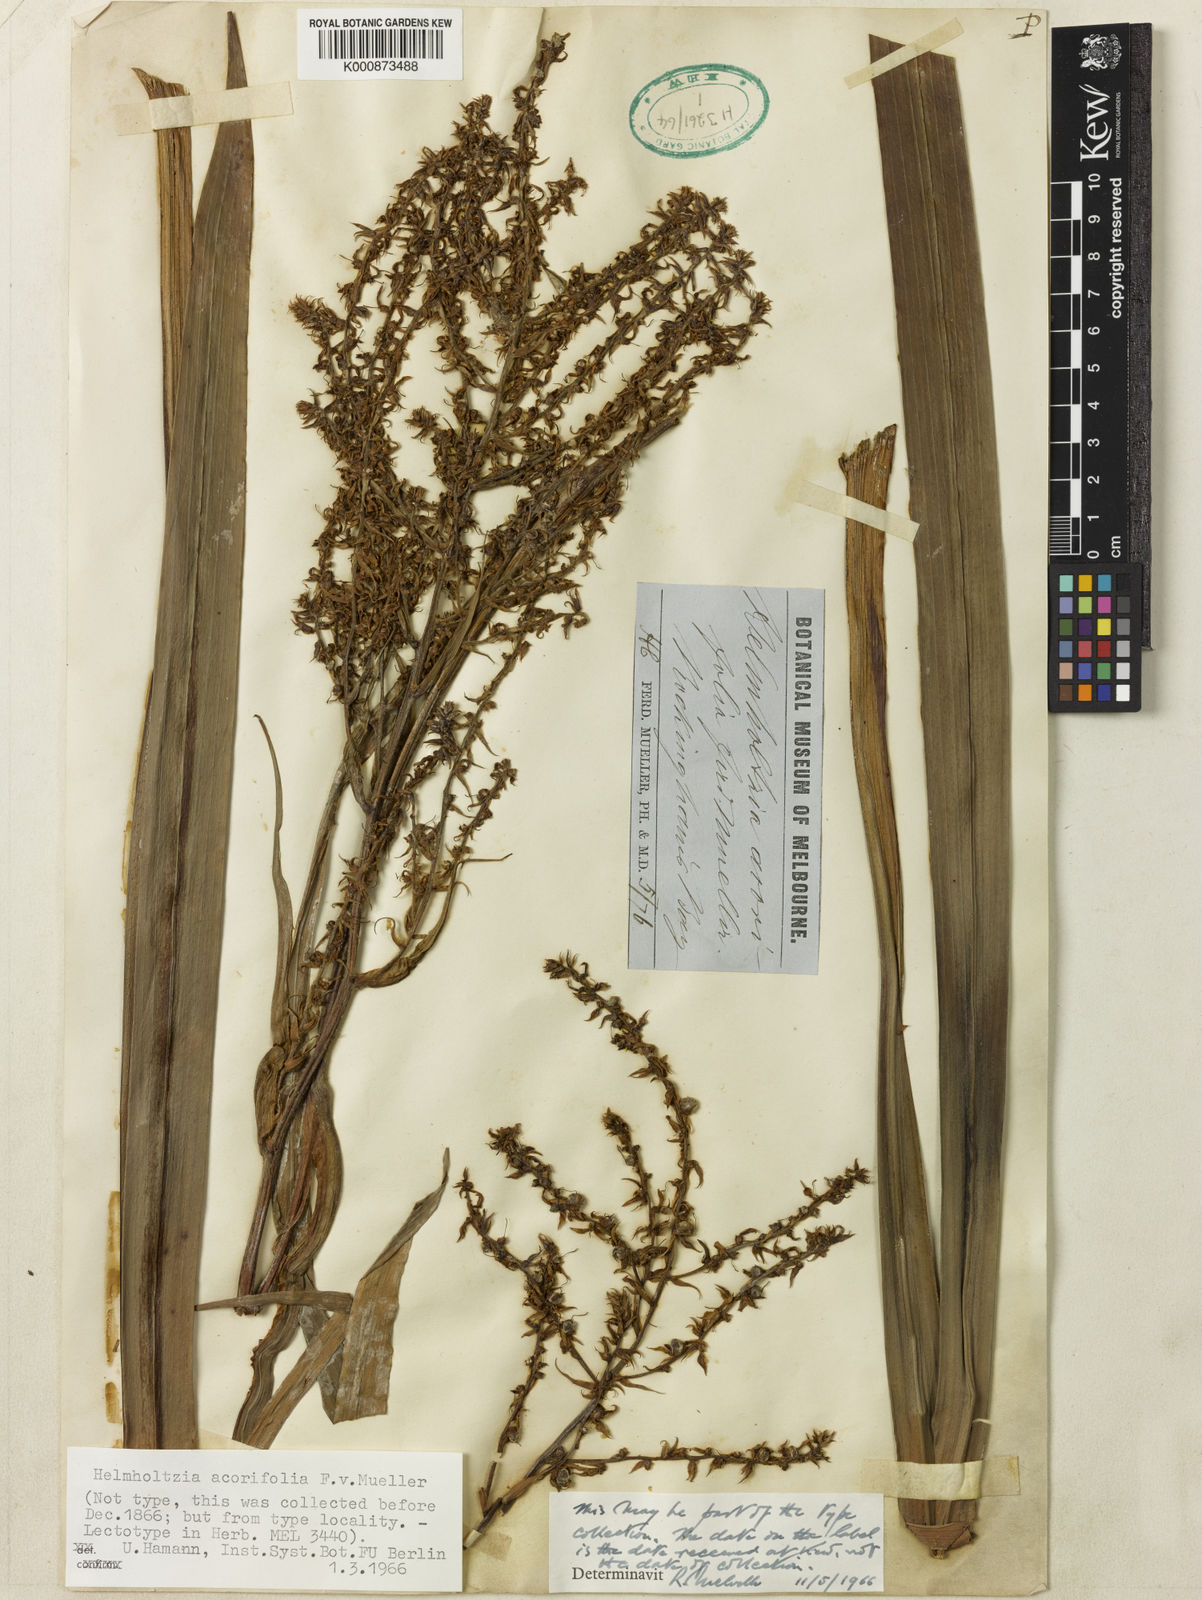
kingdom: Plantae
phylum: Tracheophyta
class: Liliopsida
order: Commelinales
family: Philydraceae
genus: Helmholtzia
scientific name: Helmholtzia acorifolia
